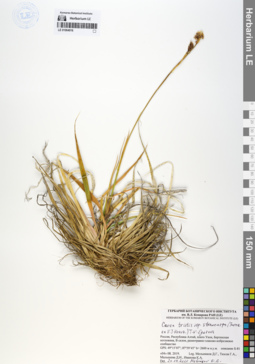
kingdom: Plantae
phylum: Tracheophyta
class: Liliopsida
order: Poales
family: Cyperaceae
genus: Carex
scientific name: Carex stenocarpa
